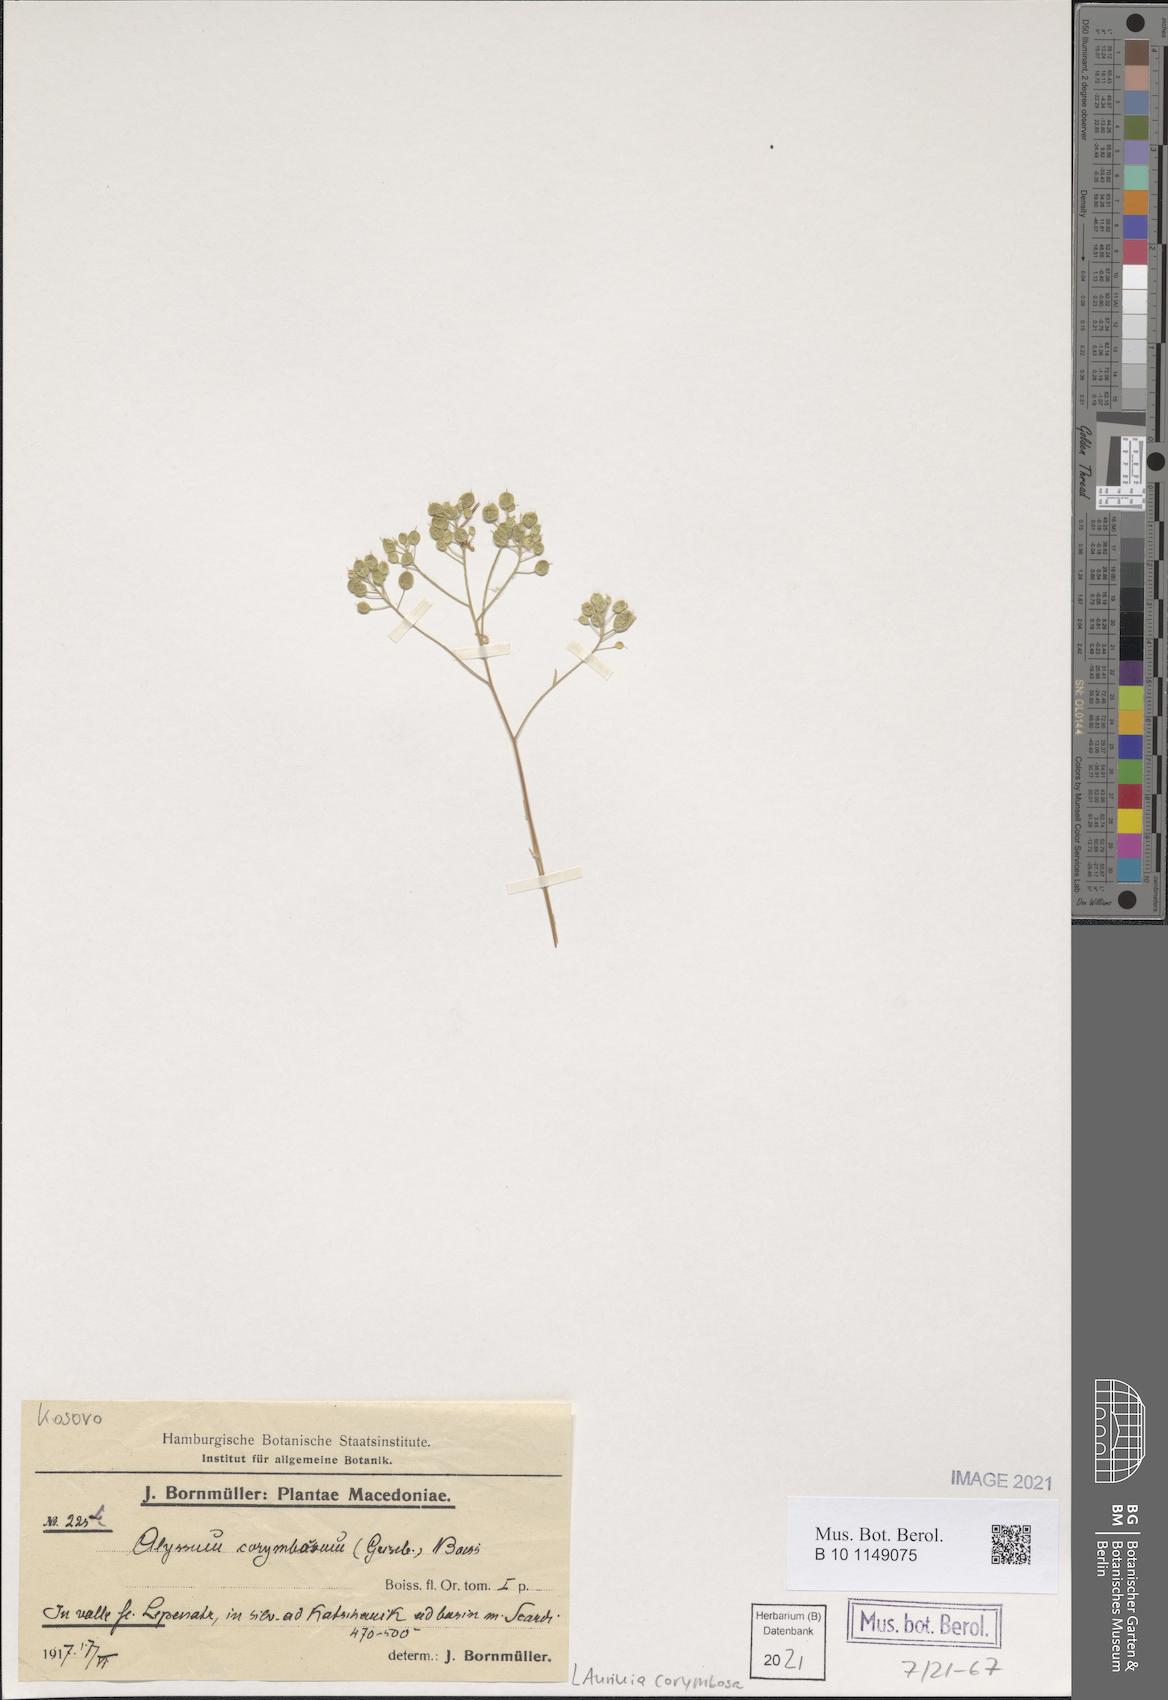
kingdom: Plantae
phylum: Tracheophyta
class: Magnoliopsida
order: Brassicales
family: Brassicaceae
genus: Aurinia
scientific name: Aurinia corymbosa
